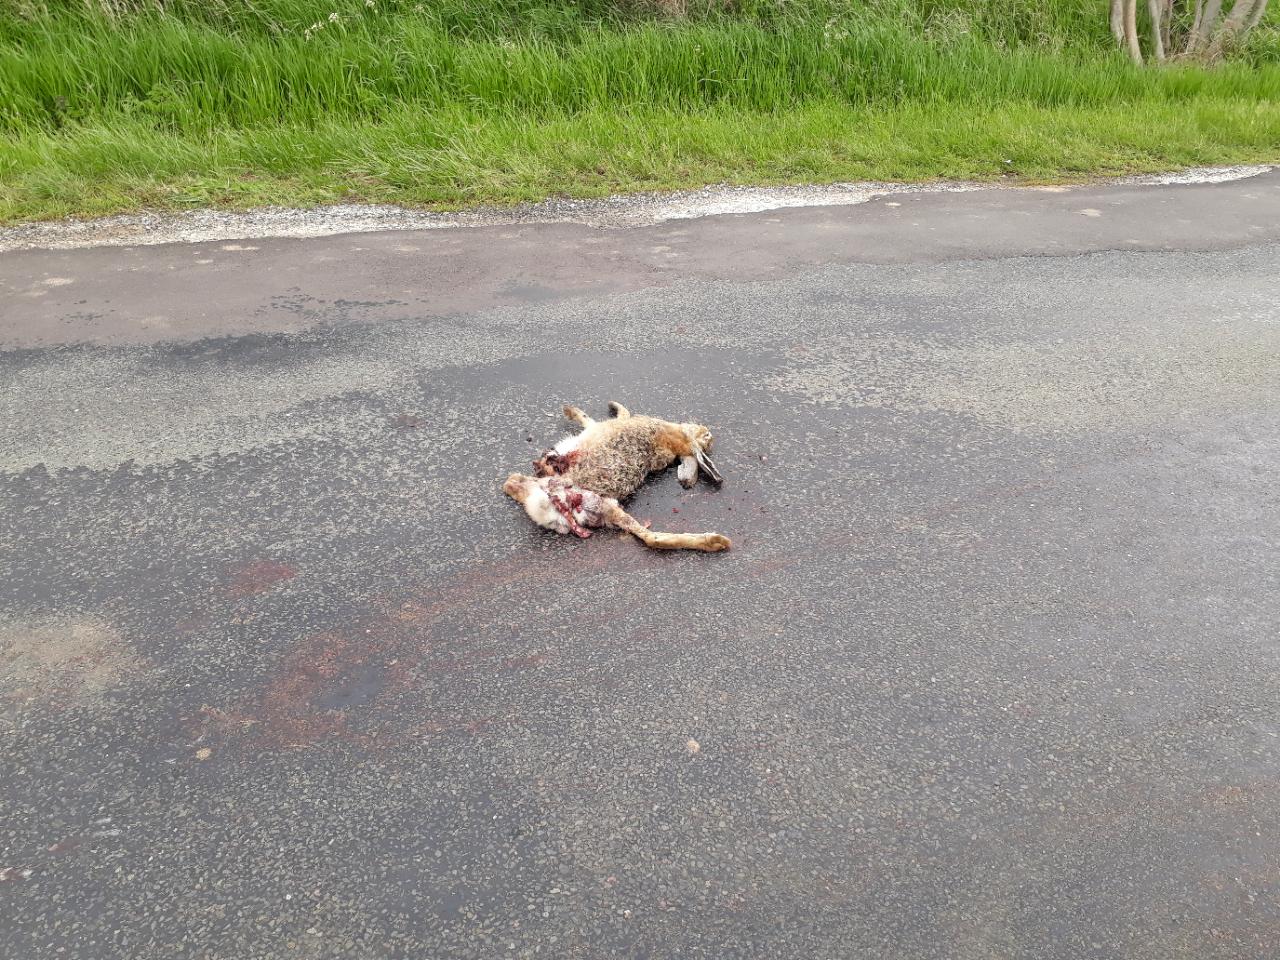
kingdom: Animalia
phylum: Chordata
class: Mammalia
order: Lagomorpha
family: Leporidae
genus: Lepus
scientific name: Lepus europaeus
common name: European hare
